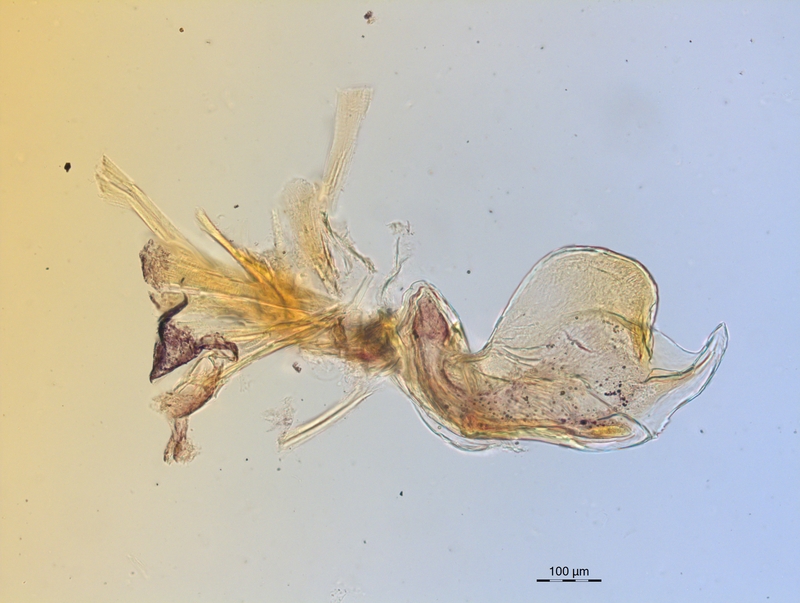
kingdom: Animalia
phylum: Arthropoda
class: Diplopoda
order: Chordeumatida
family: Craspedosomatidae
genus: Craspedosoma
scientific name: Craspedosoma rawlinsii
